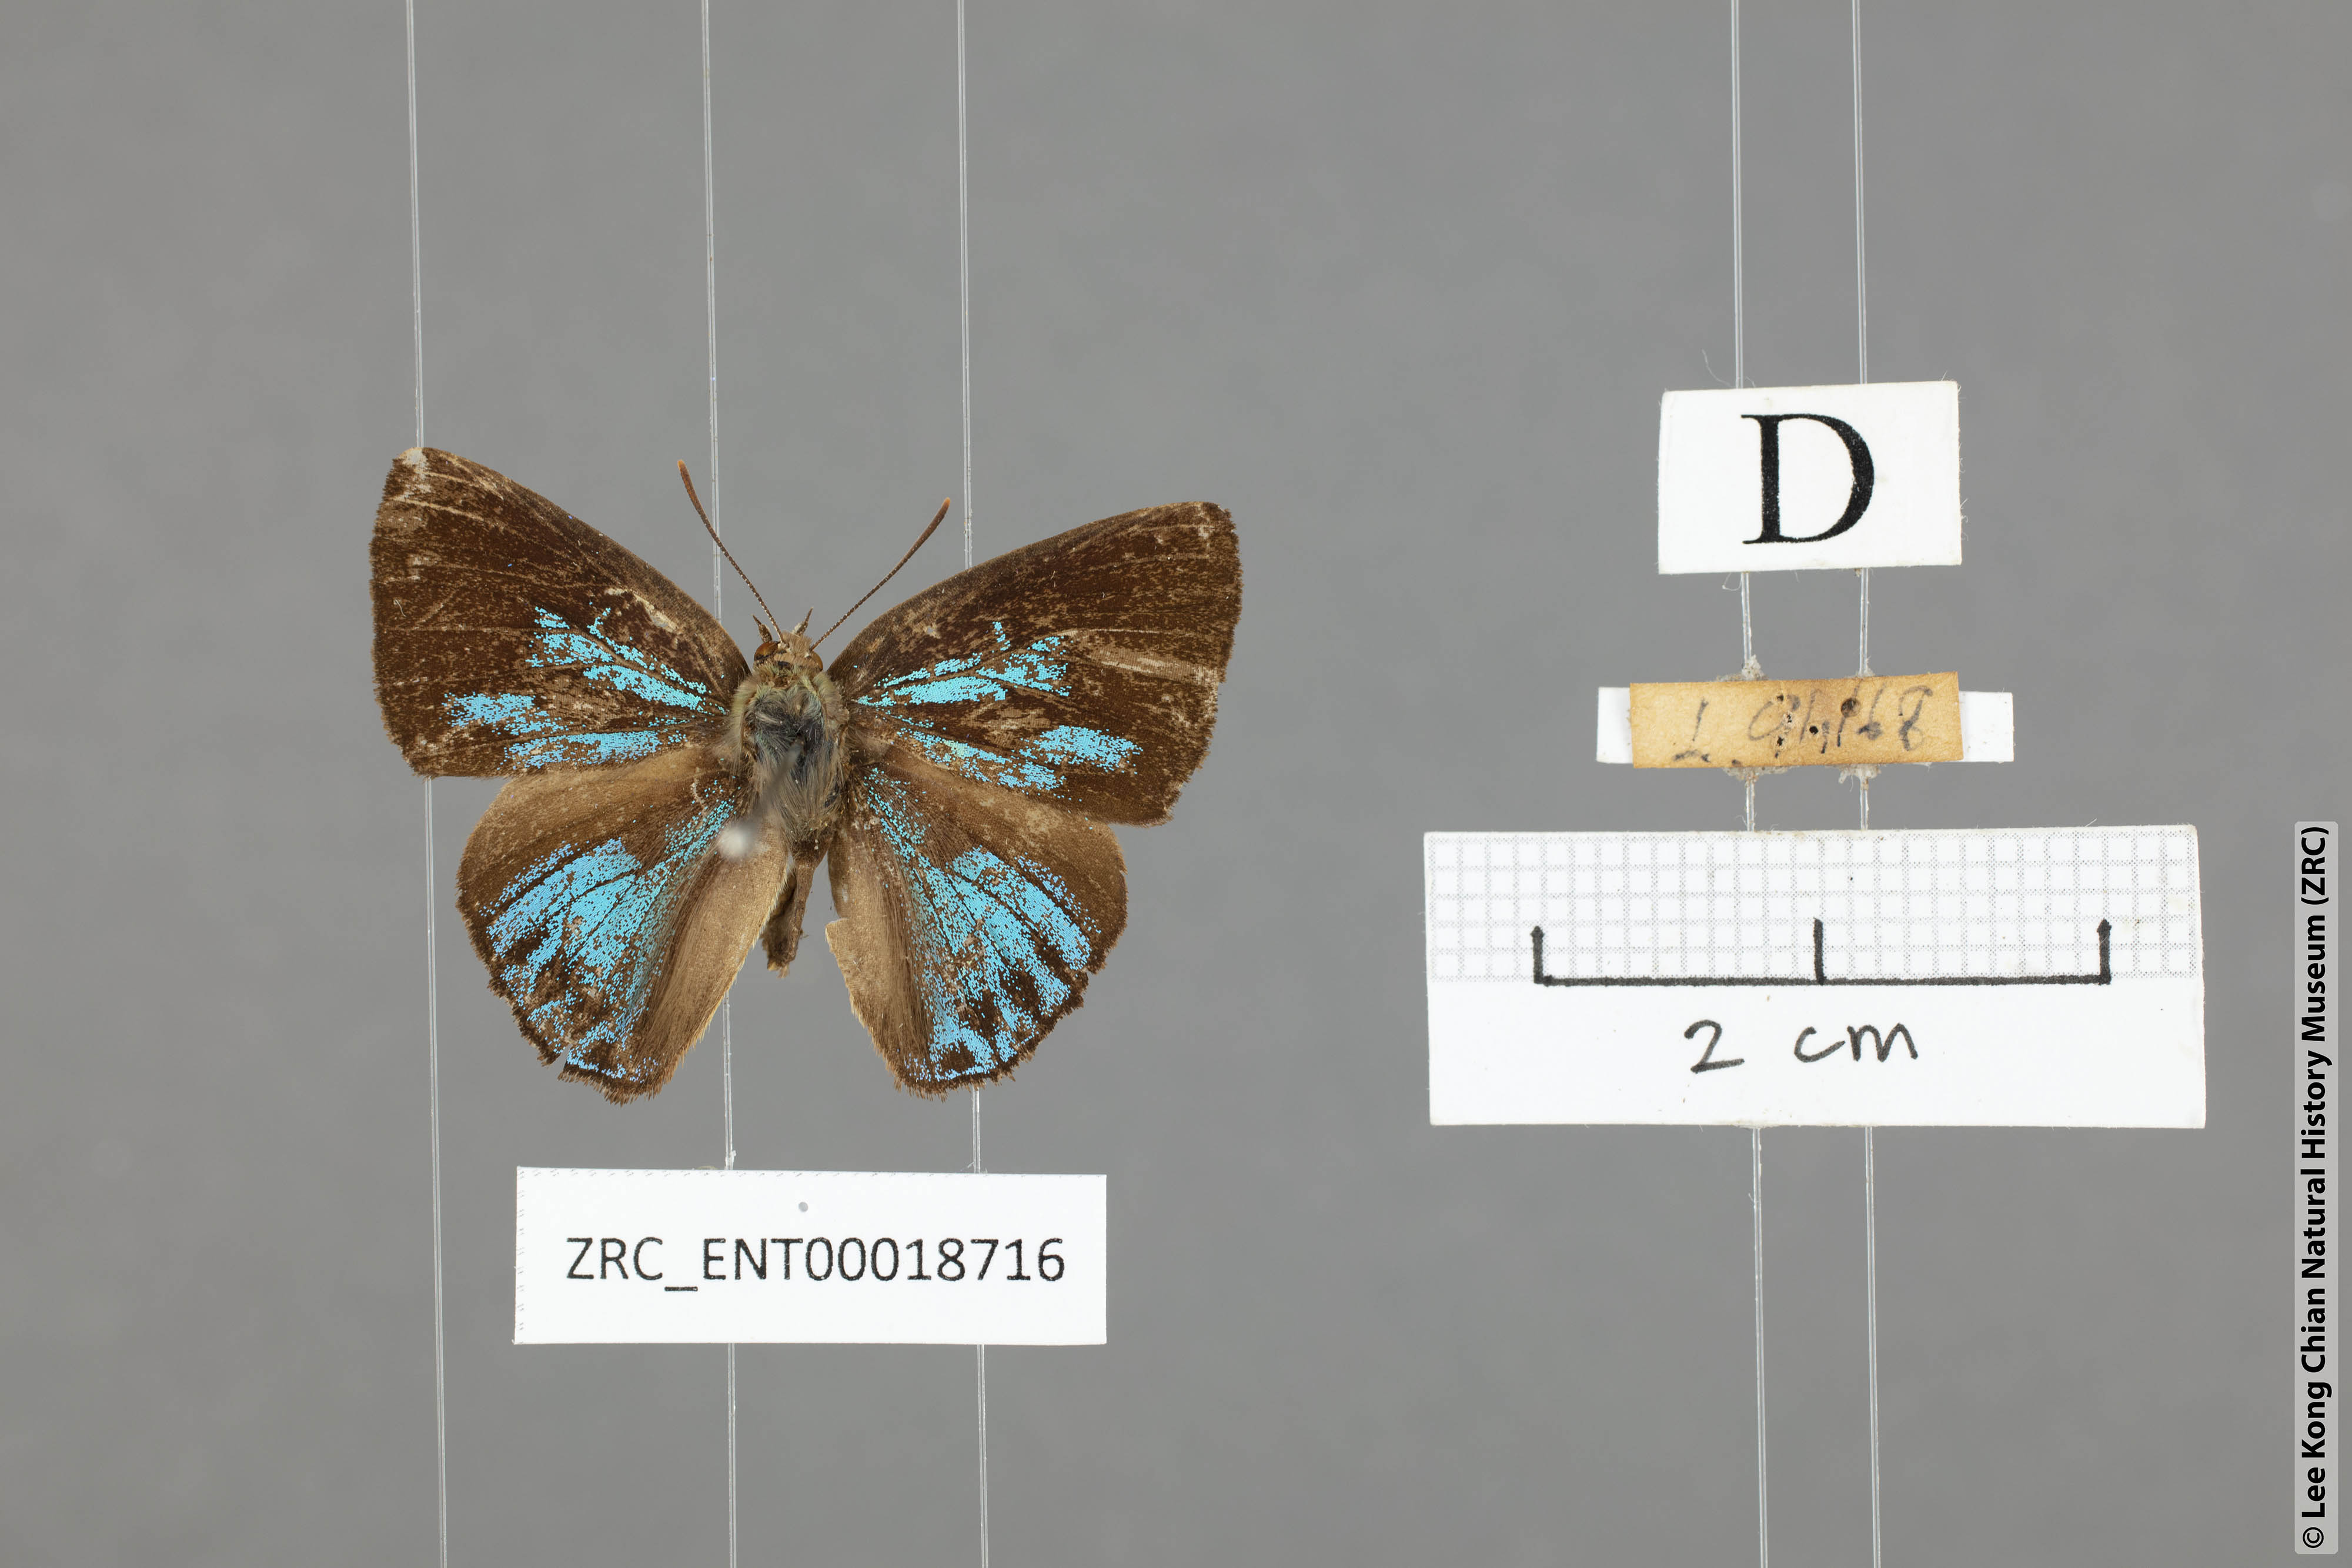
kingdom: Animalia
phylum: Arthropoda
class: Insecta
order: Lepidoptera
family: Lycaenidae
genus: Deramas
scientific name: Deramas jasodai
